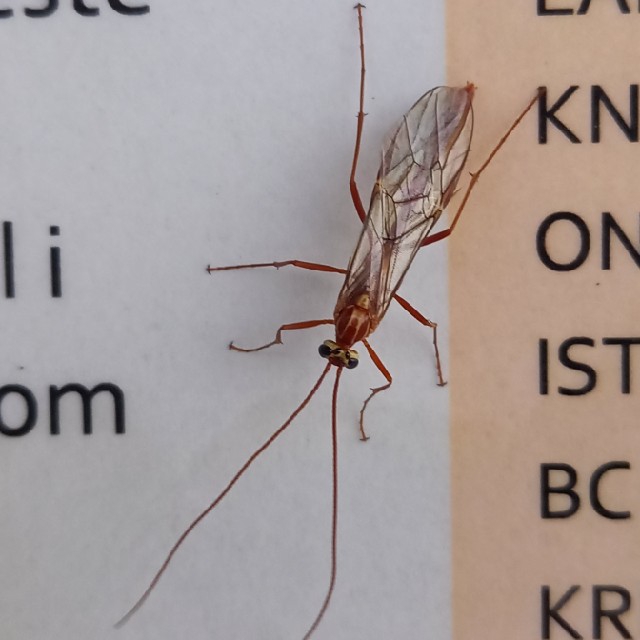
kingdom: Animalia
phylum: Arthropoda
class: Insecta
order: Hymenoptera
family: Ichneumonidae
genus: Ophion
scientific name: Ophion obscuratus
